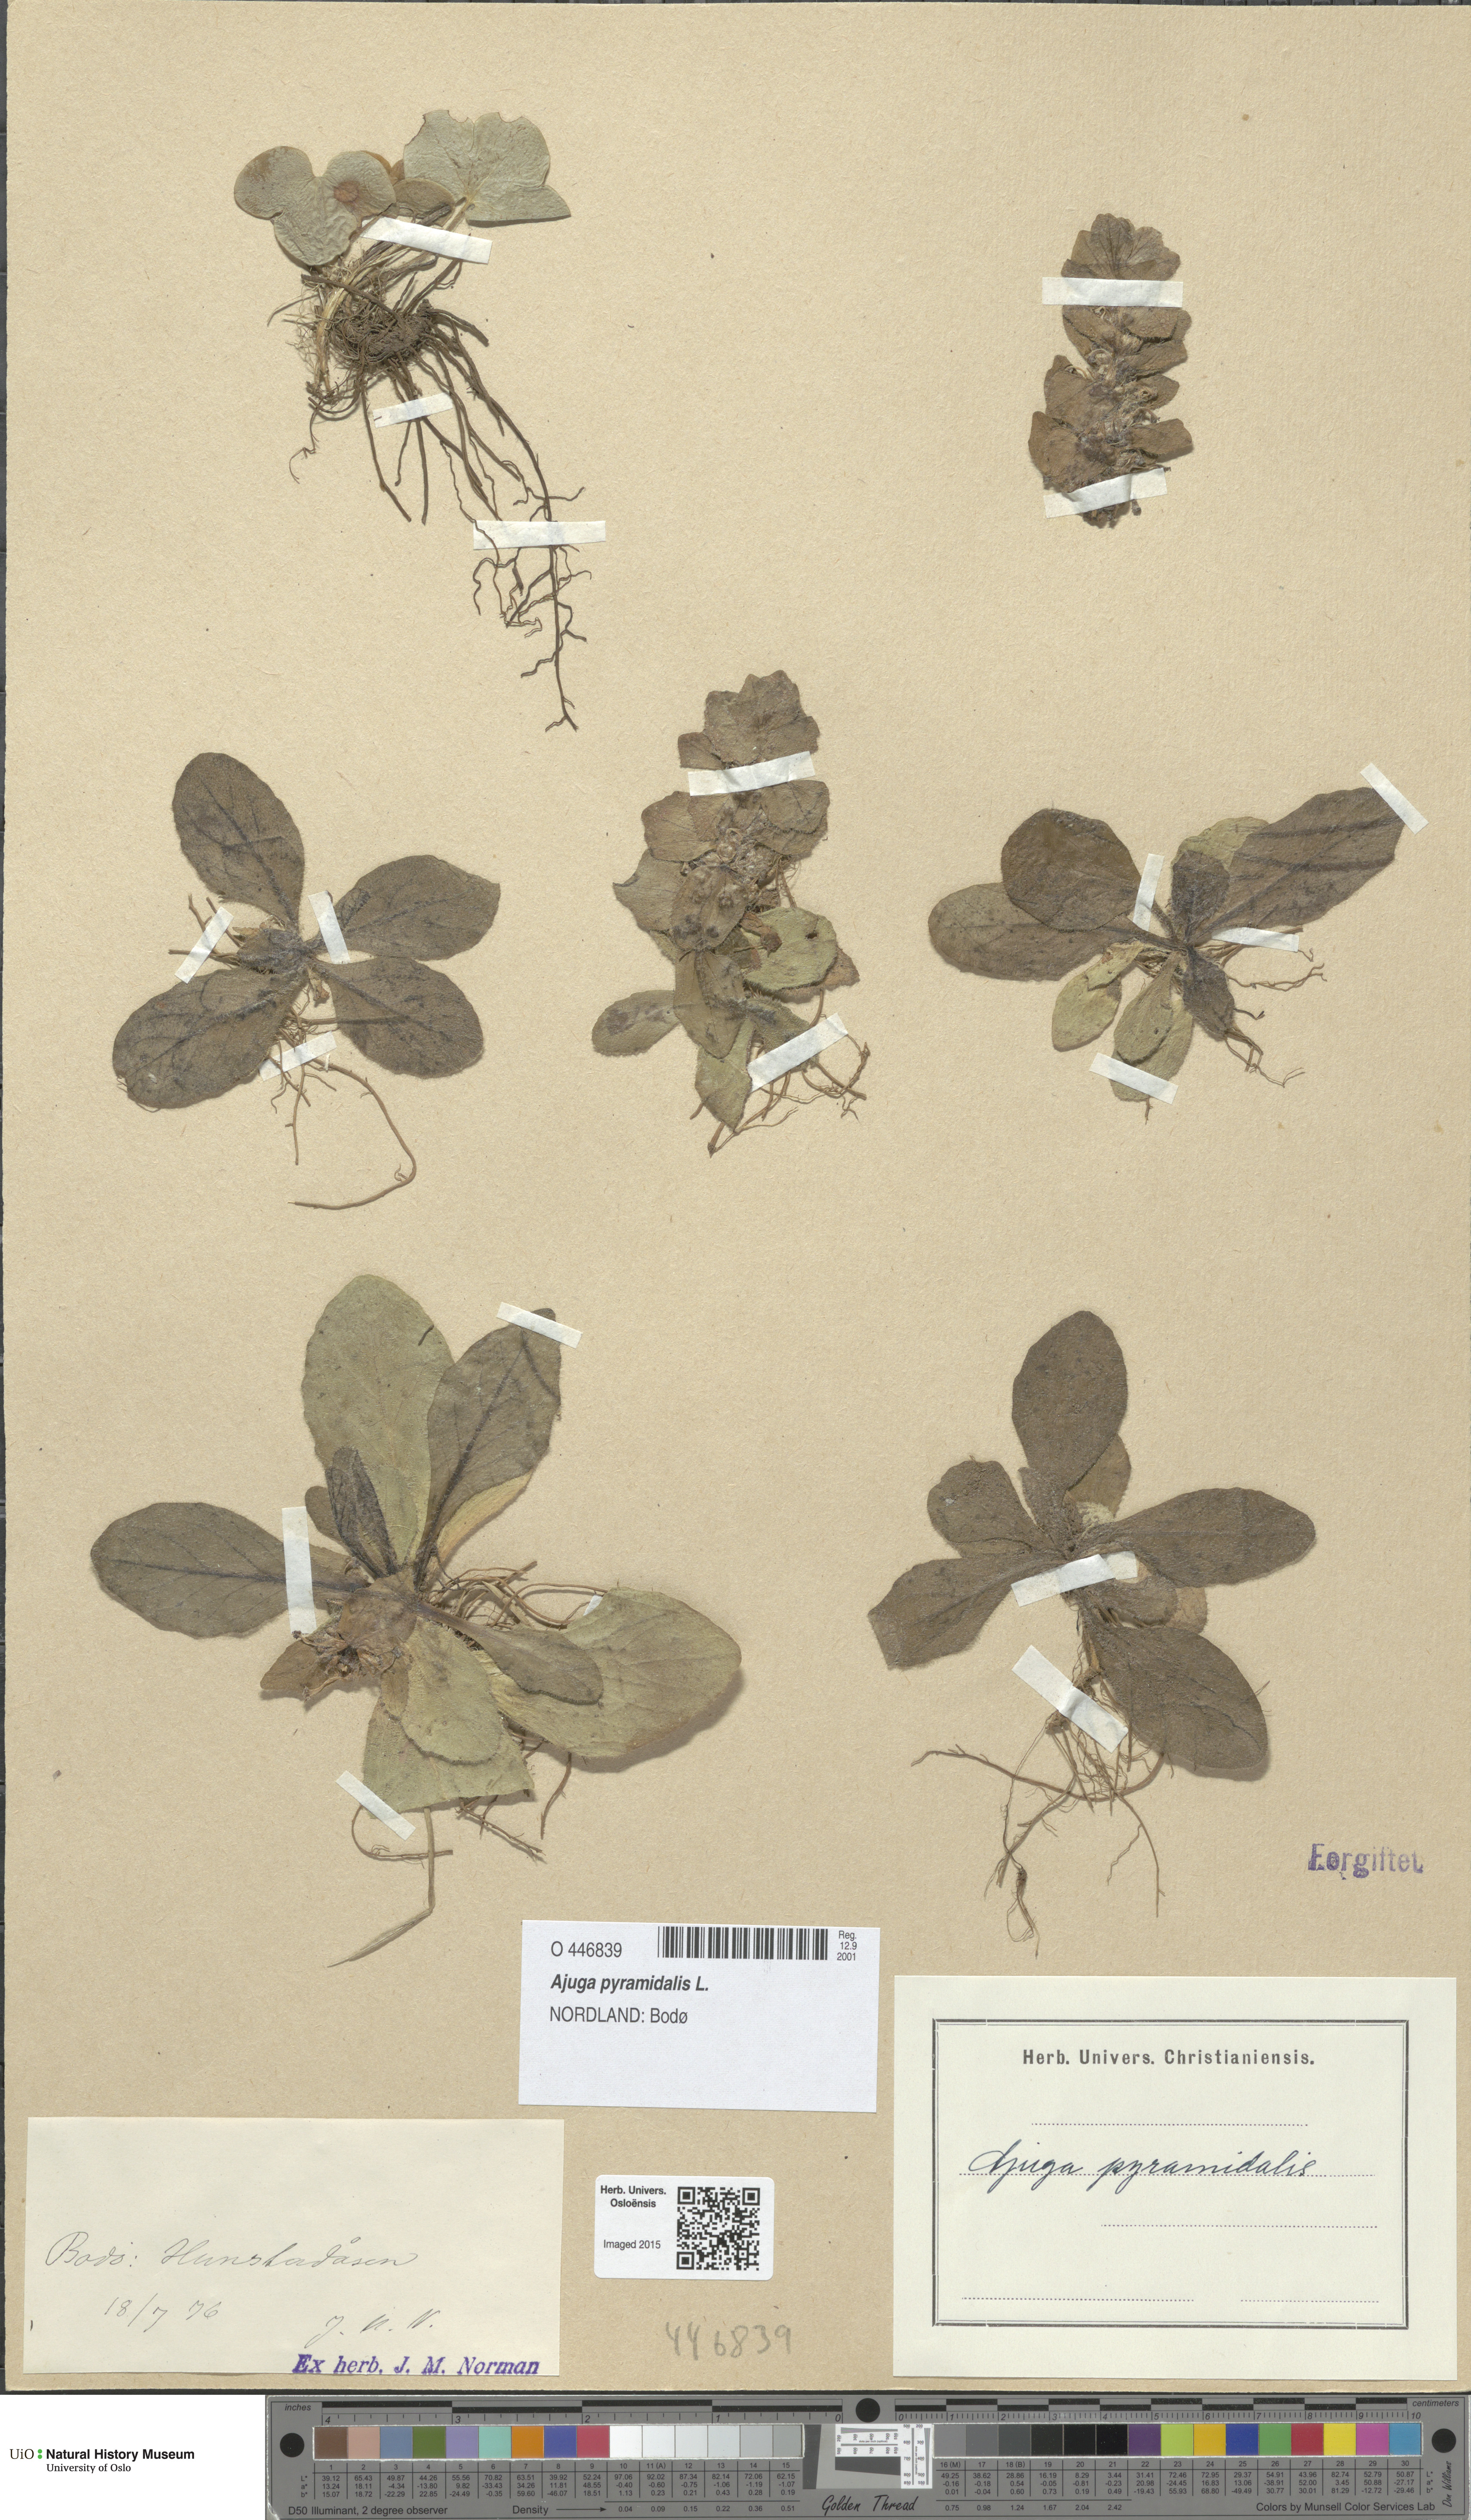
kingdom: Plantae
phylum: Tracheophyta
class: Magnoliopsida
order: Lamiales
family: Lamiaceae
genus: Ajuga
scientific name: Ajuga pyramidalis
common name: Pyramid bugle
